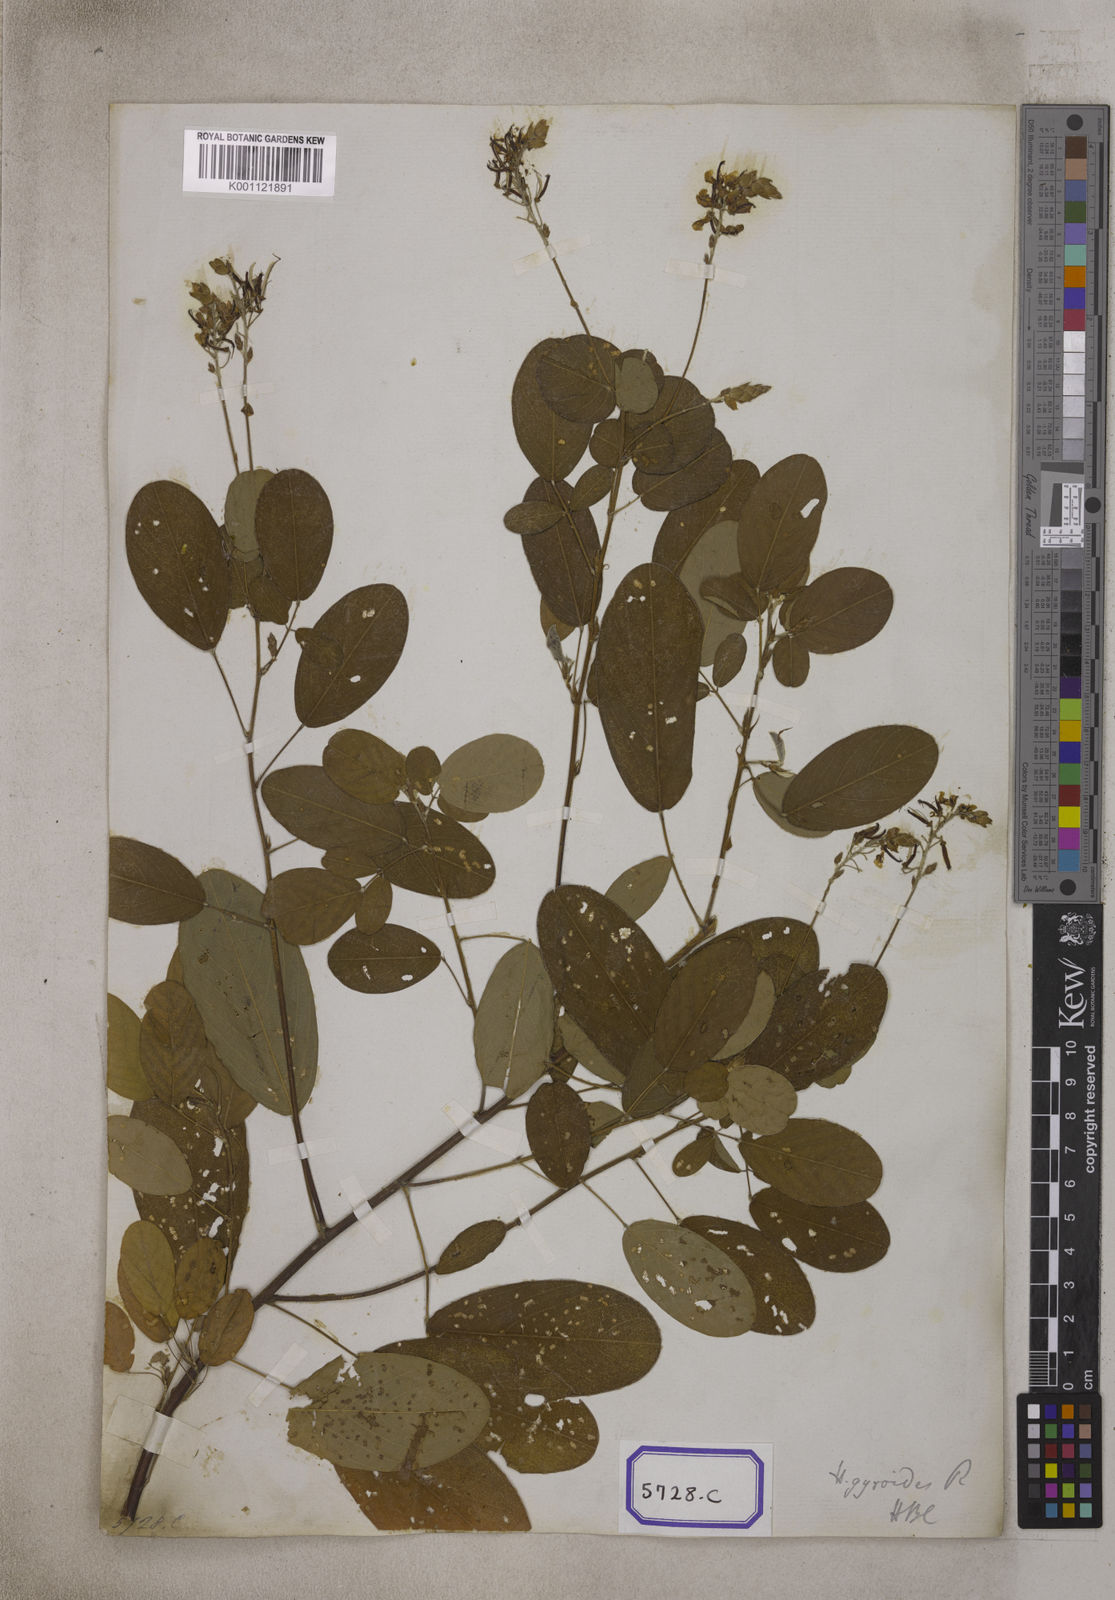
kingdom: Plantae
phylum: Tracheophyta
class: Magnoliopsida
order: Fabales
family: Fabaceae
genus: Codariocalyx
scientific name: Codariocalyx gyroides
